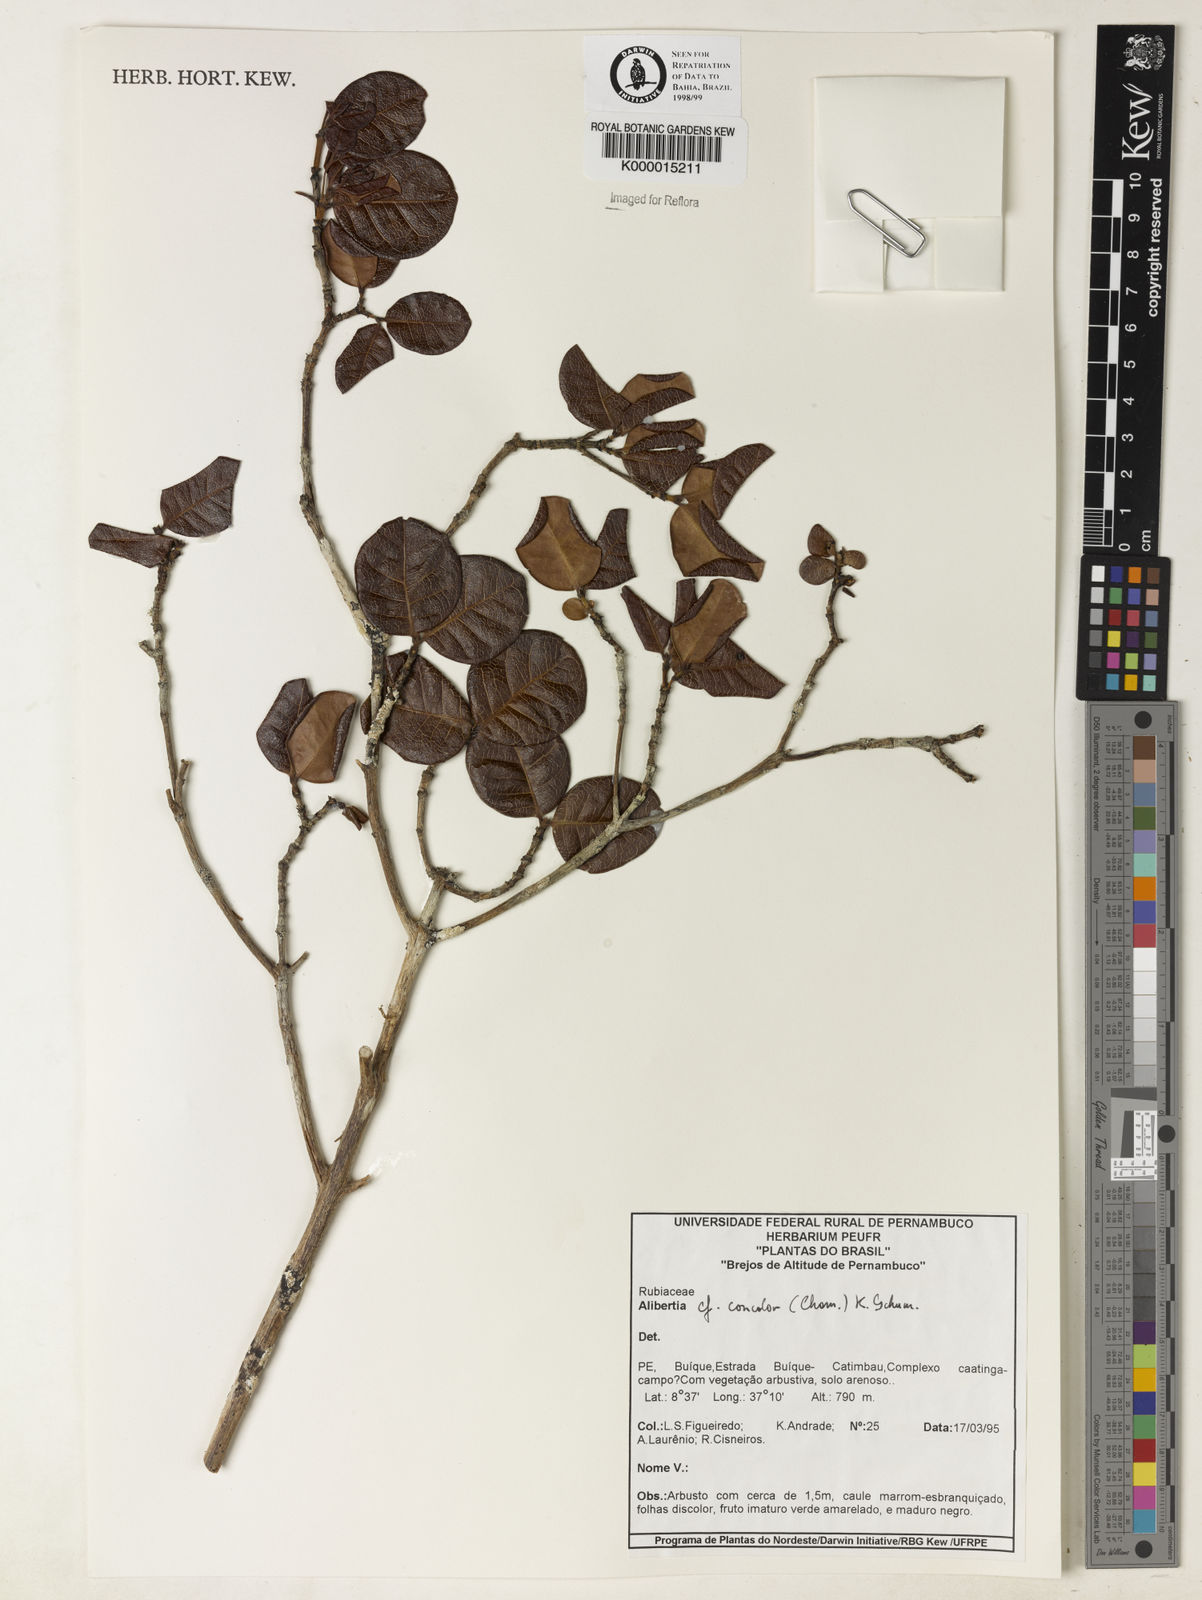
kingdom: Plantae
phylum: Tracheophyta
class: Magnoliopsida
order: Gentianales
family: Rubiaceae
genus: Cordiera
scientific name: Cordiera concolor
